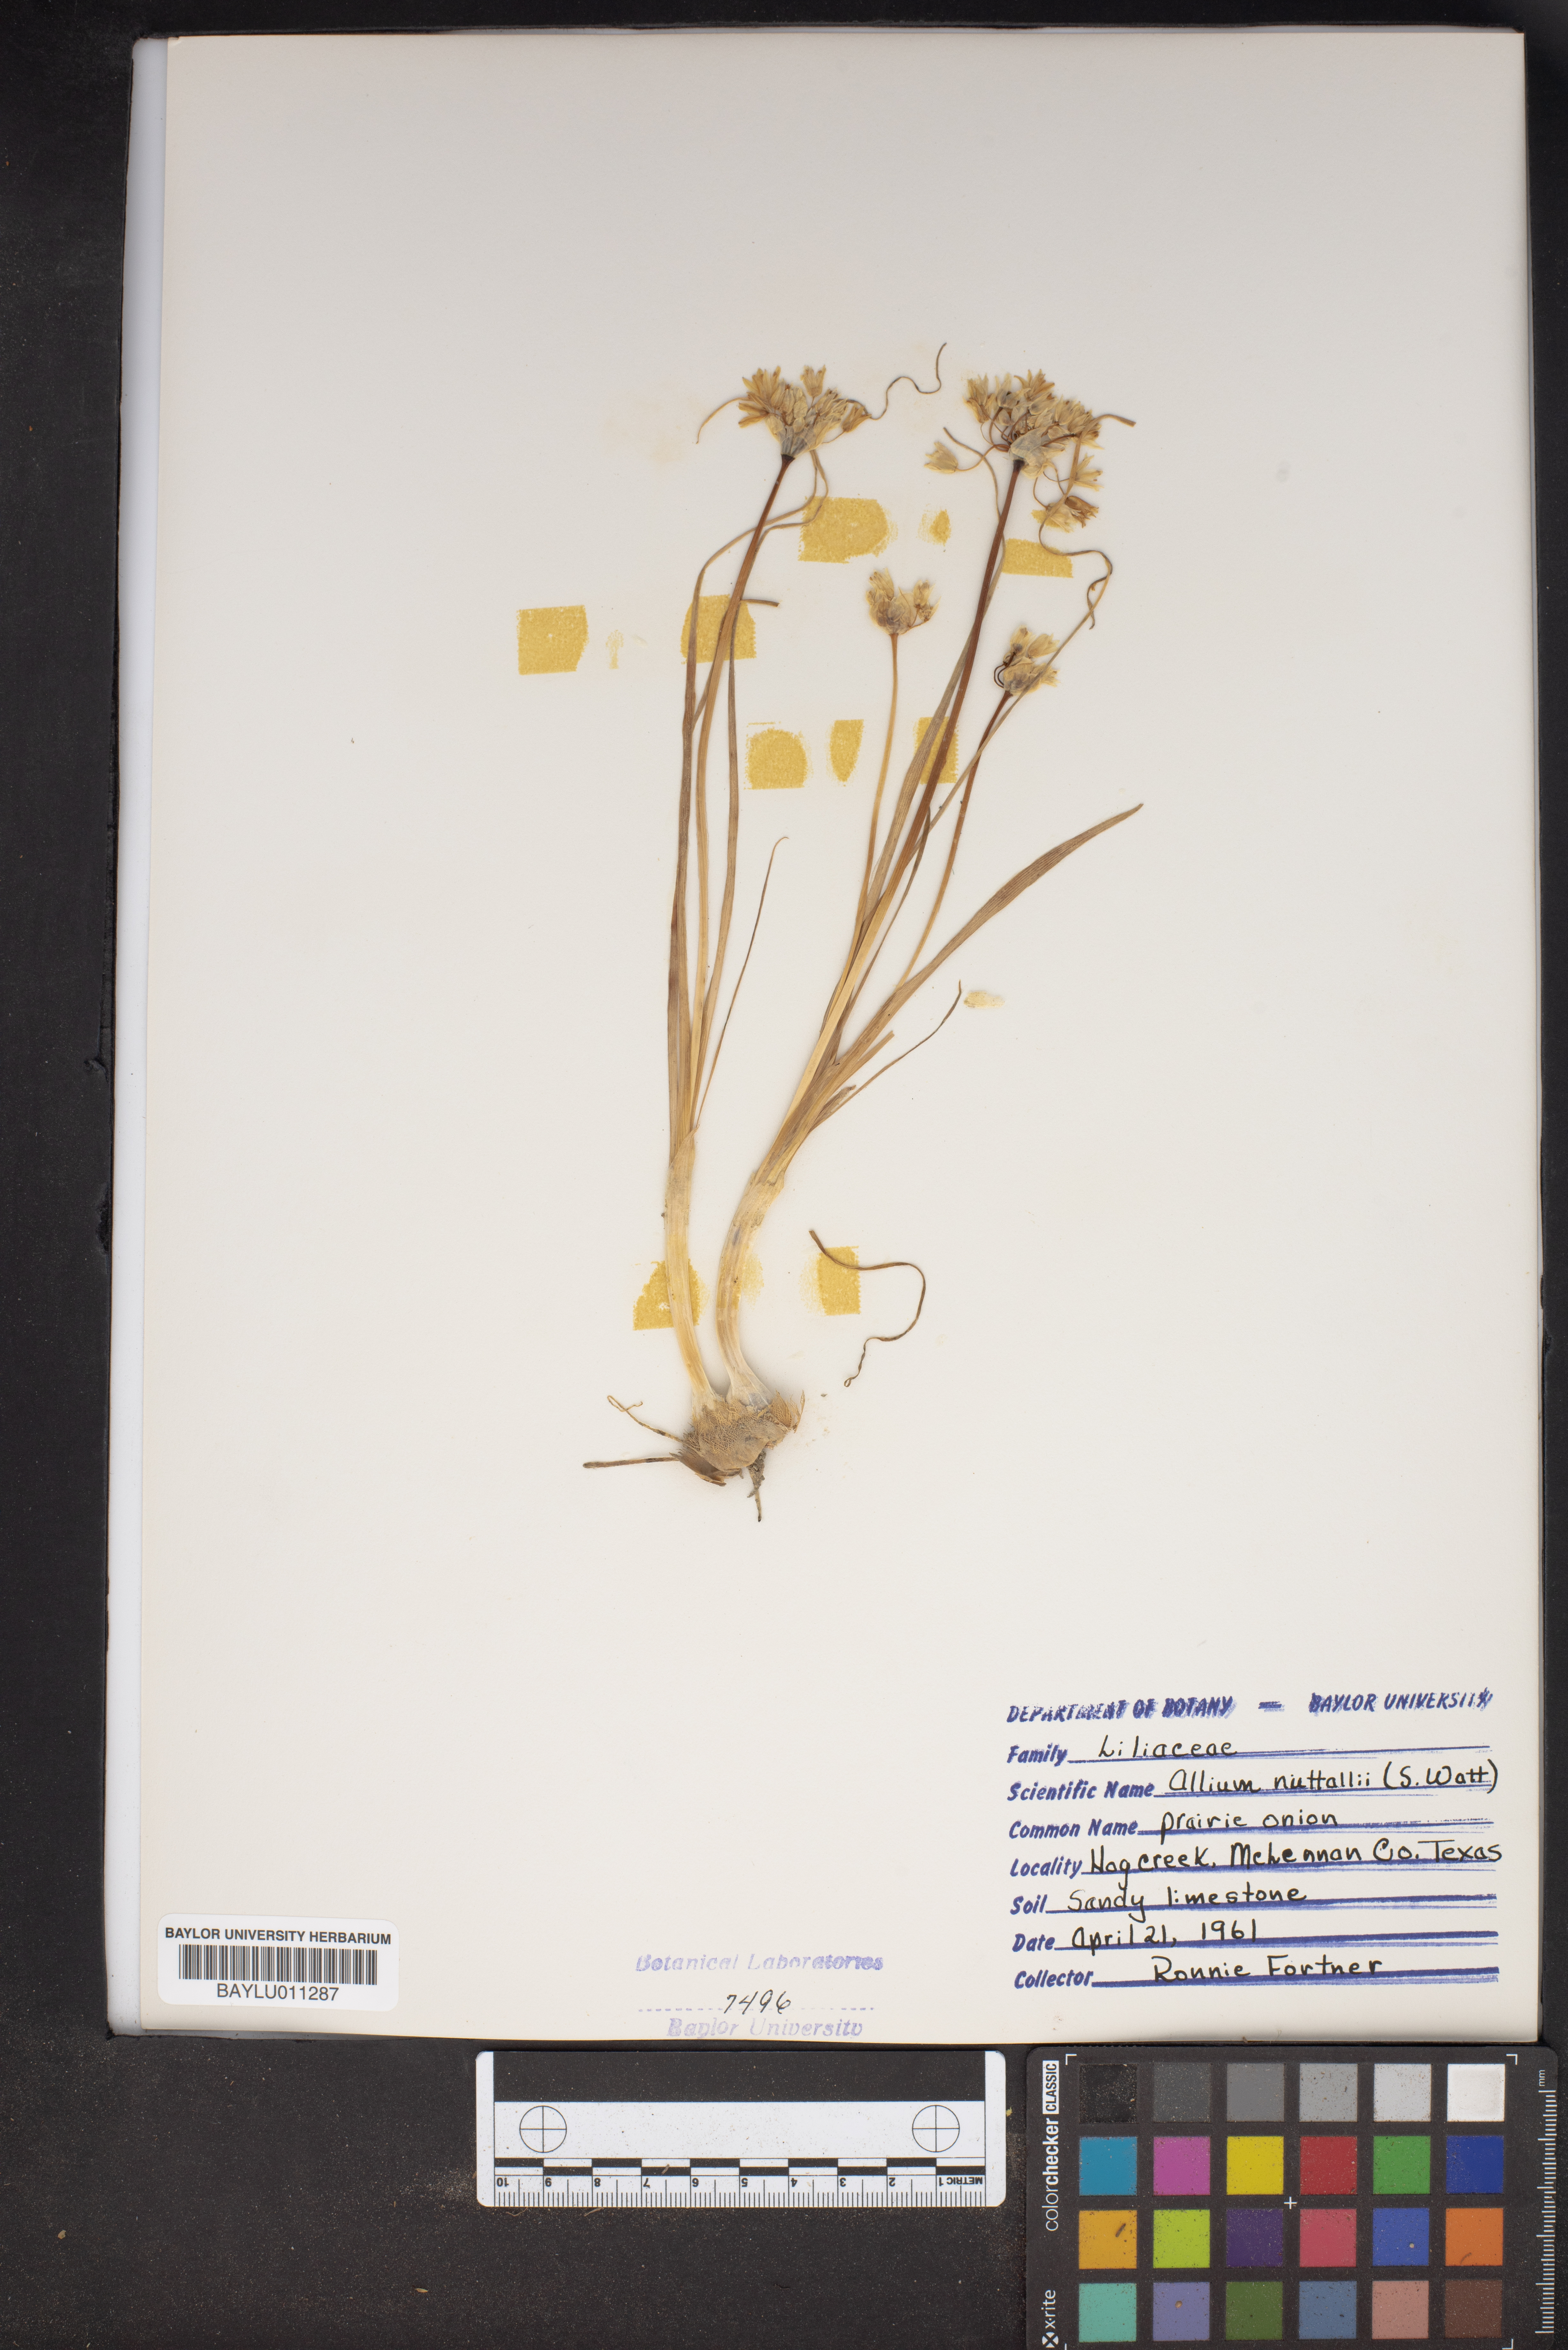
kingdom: Plantae
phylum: Tracheophyta
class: Liliopsida
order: Asparagales
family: Amaryllidaceae
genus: Allium
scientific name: Allium drummondii
